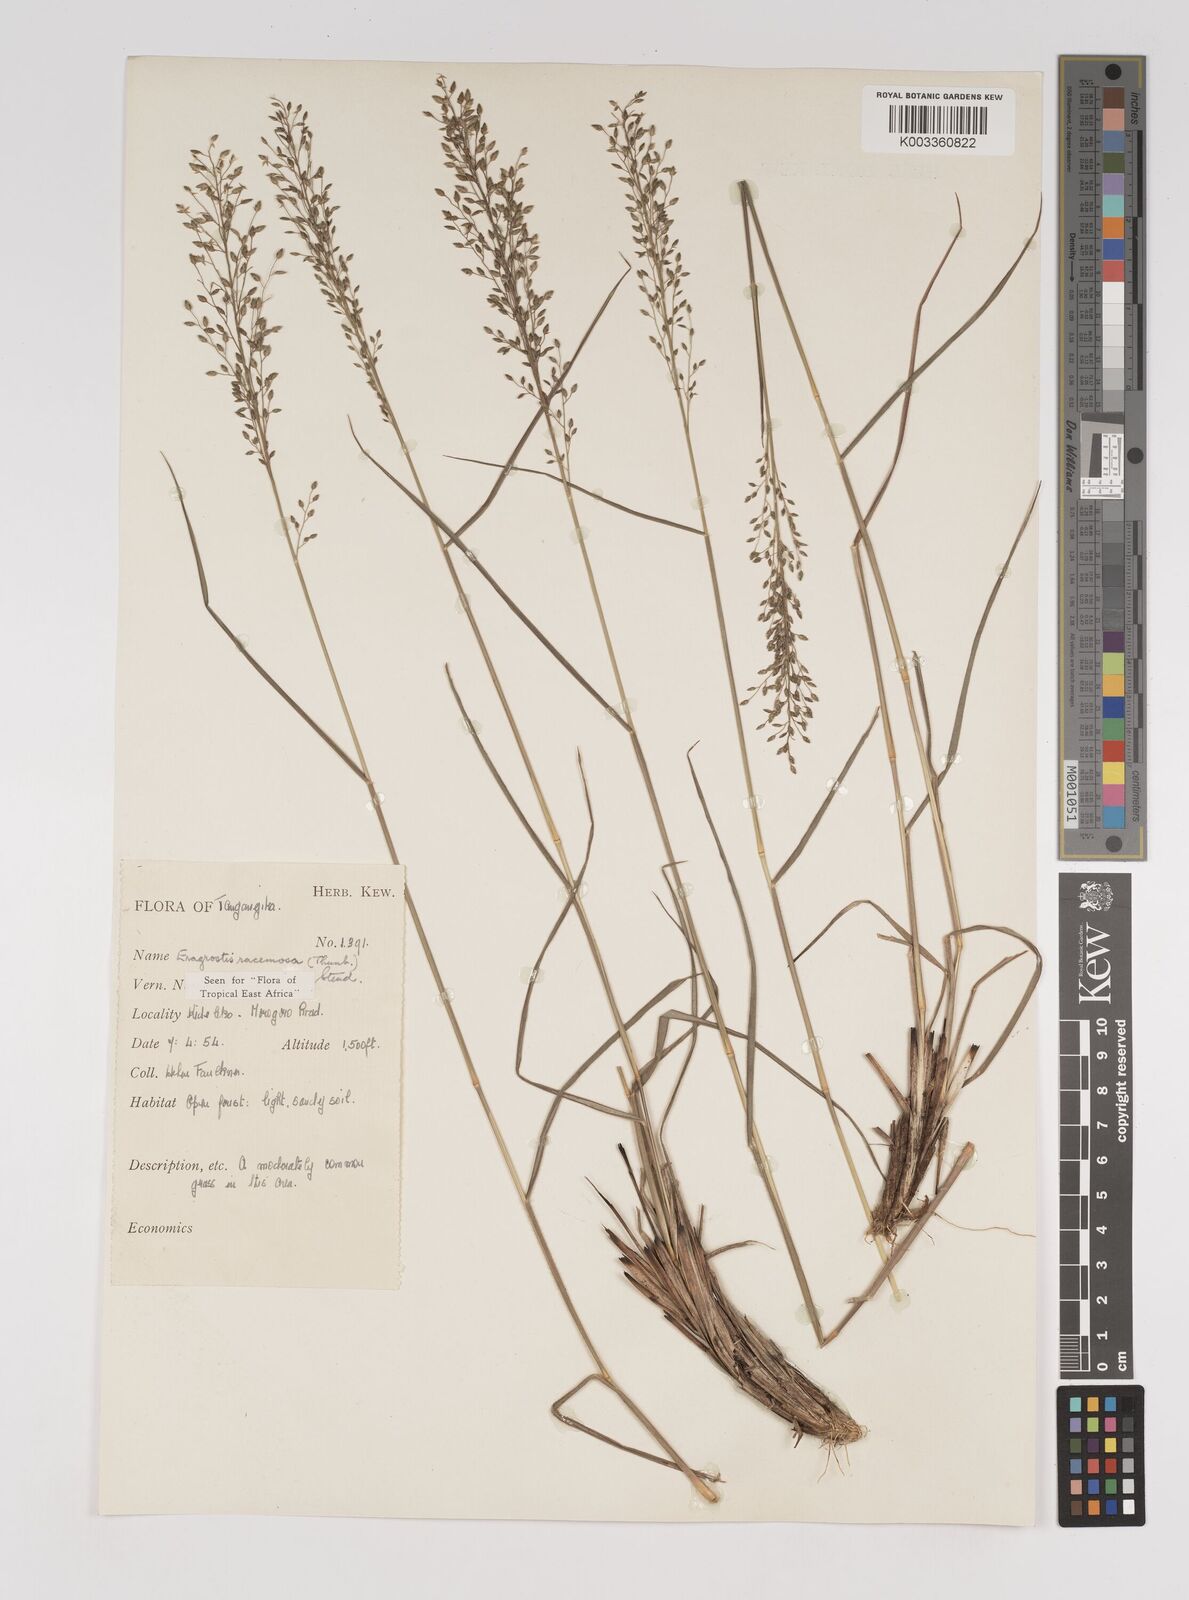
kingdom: Plantae
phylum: Tracheophyta
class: Liliopsida
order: Poales
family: Poaceae
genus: Eragrostis
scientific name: Eragrostis racemosa
